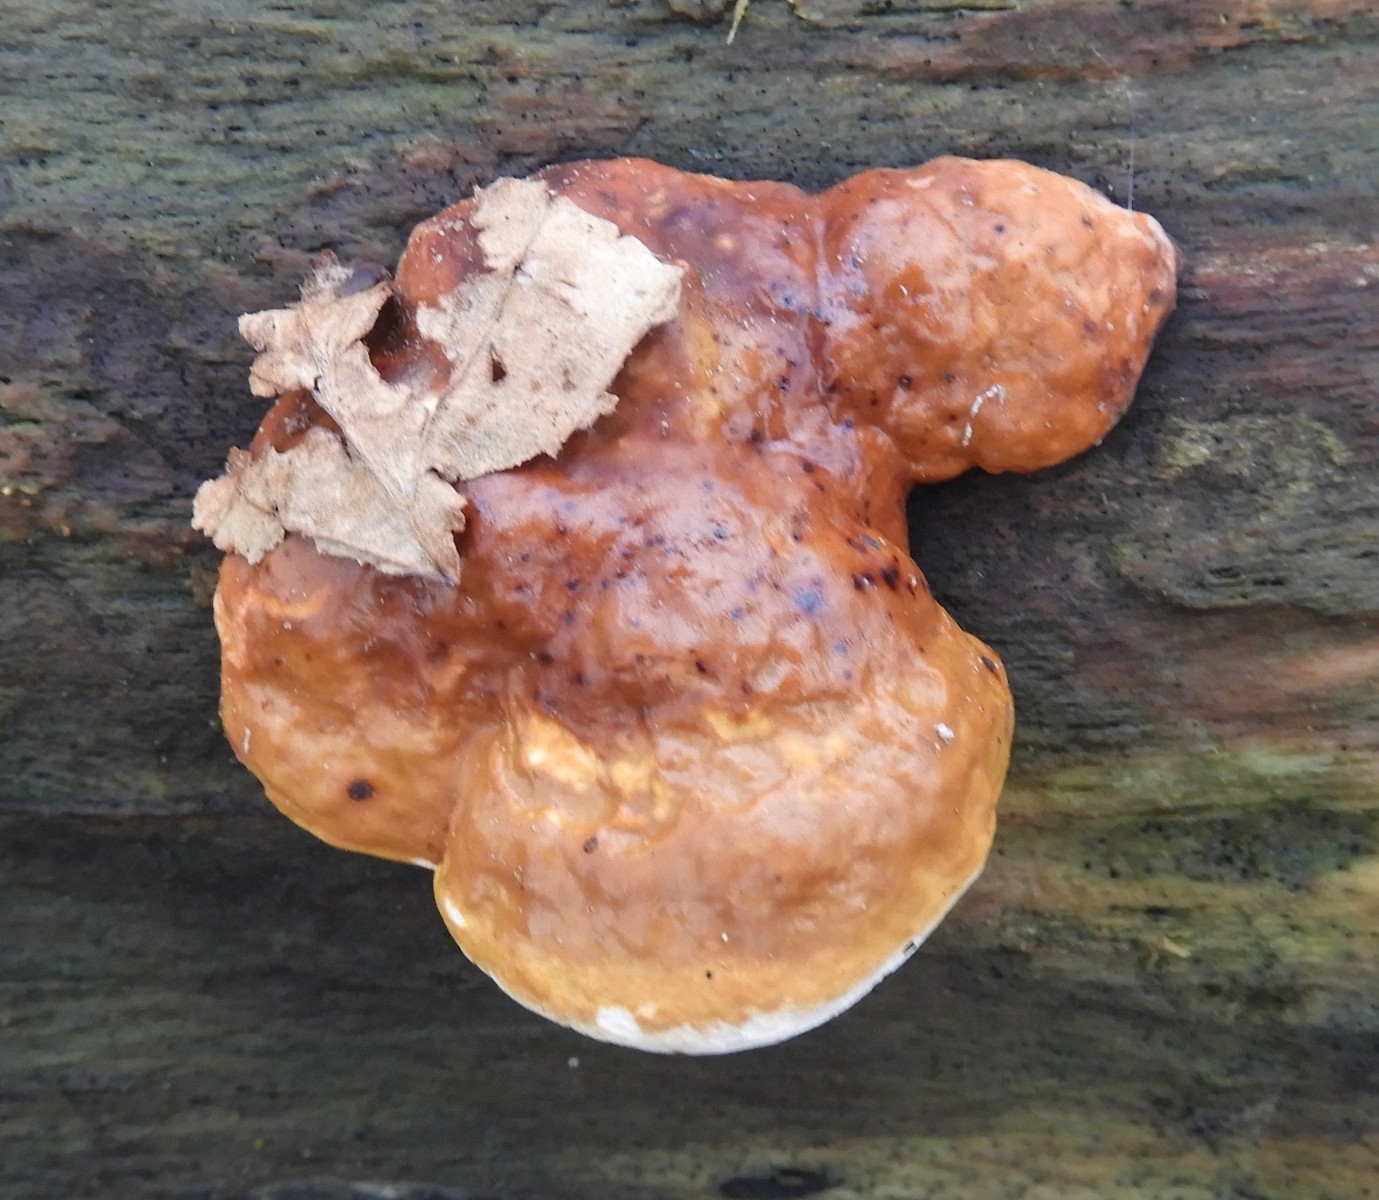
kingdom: Fungi
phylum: Basidiomycota
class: Agaricomycetes
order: Polyporales
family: Fomitopsidaceae
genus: Fomitopsis
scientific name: Fomitopsis pinicola
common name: randbæltet hovporesvamp
